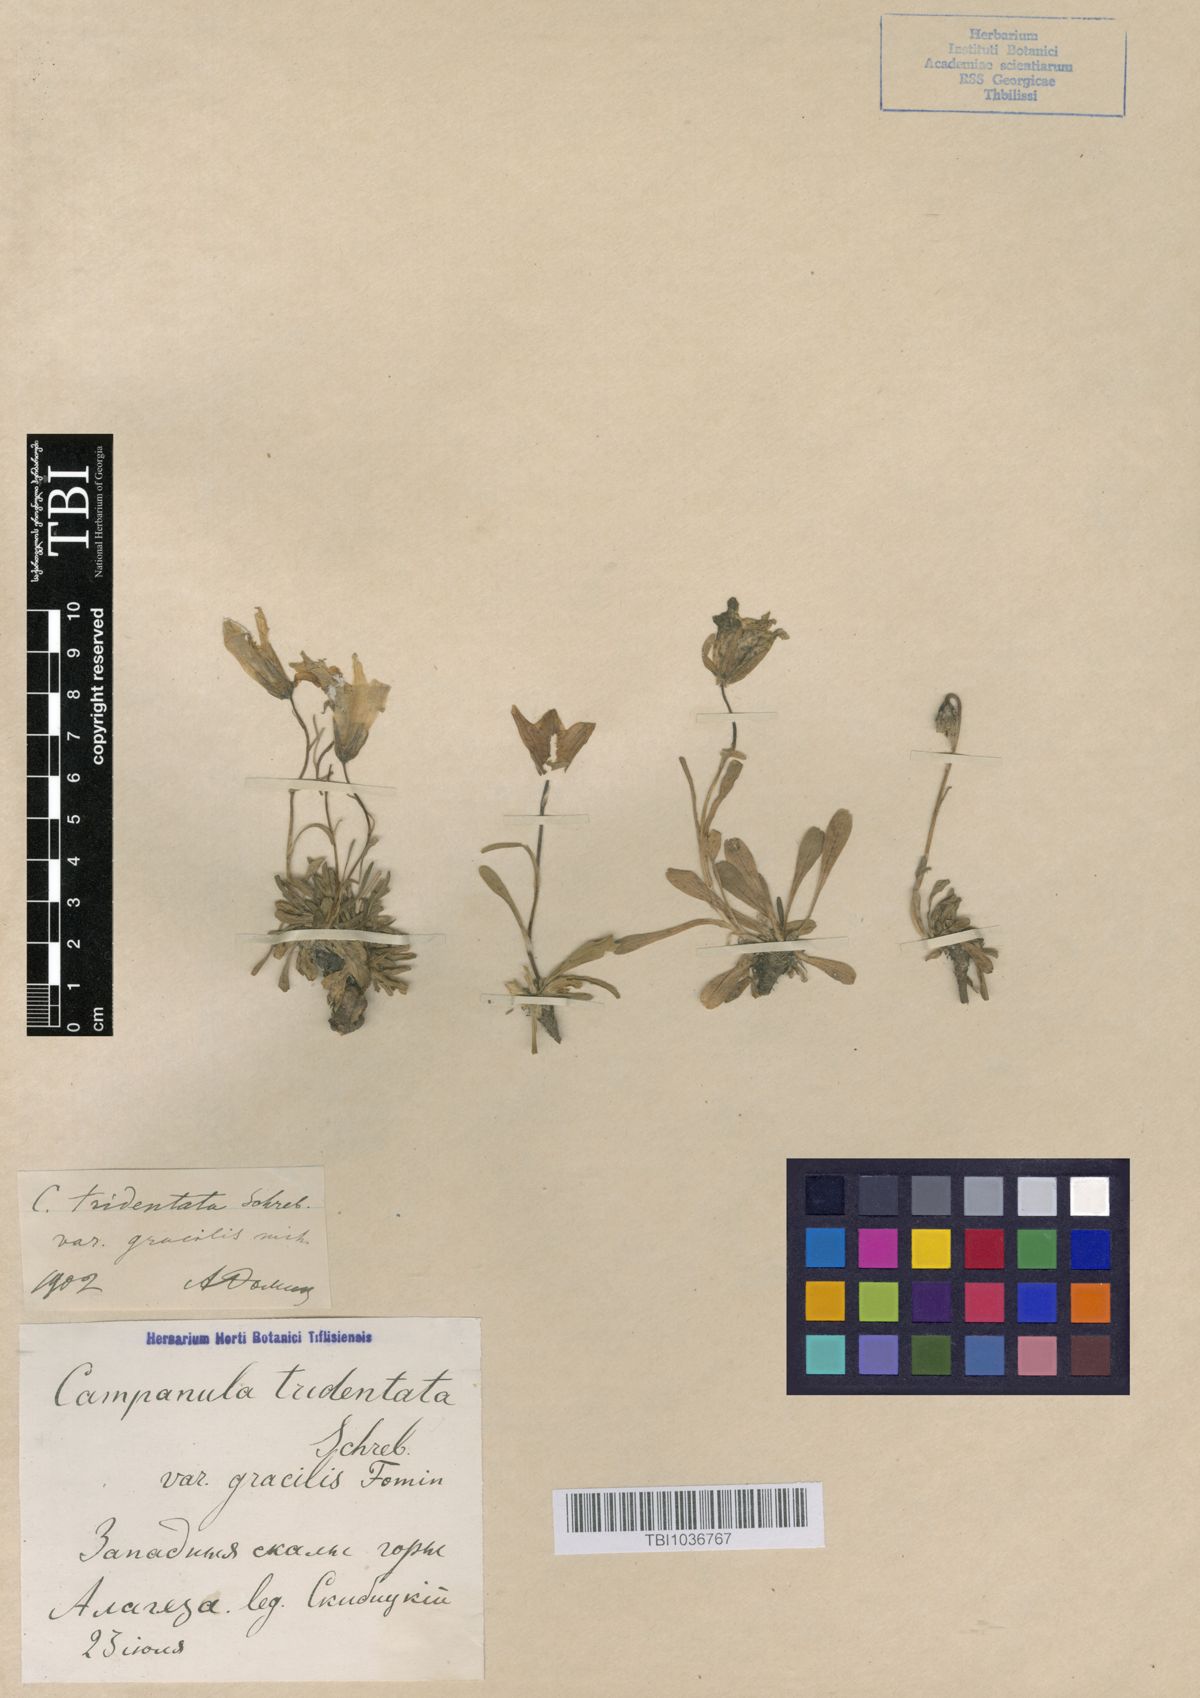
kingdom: Plantae
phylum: Tracheophyta
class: Magnoliopsida
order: Asterales
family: Campanulaceae
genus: Campanula
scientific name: Campanula tridentata
